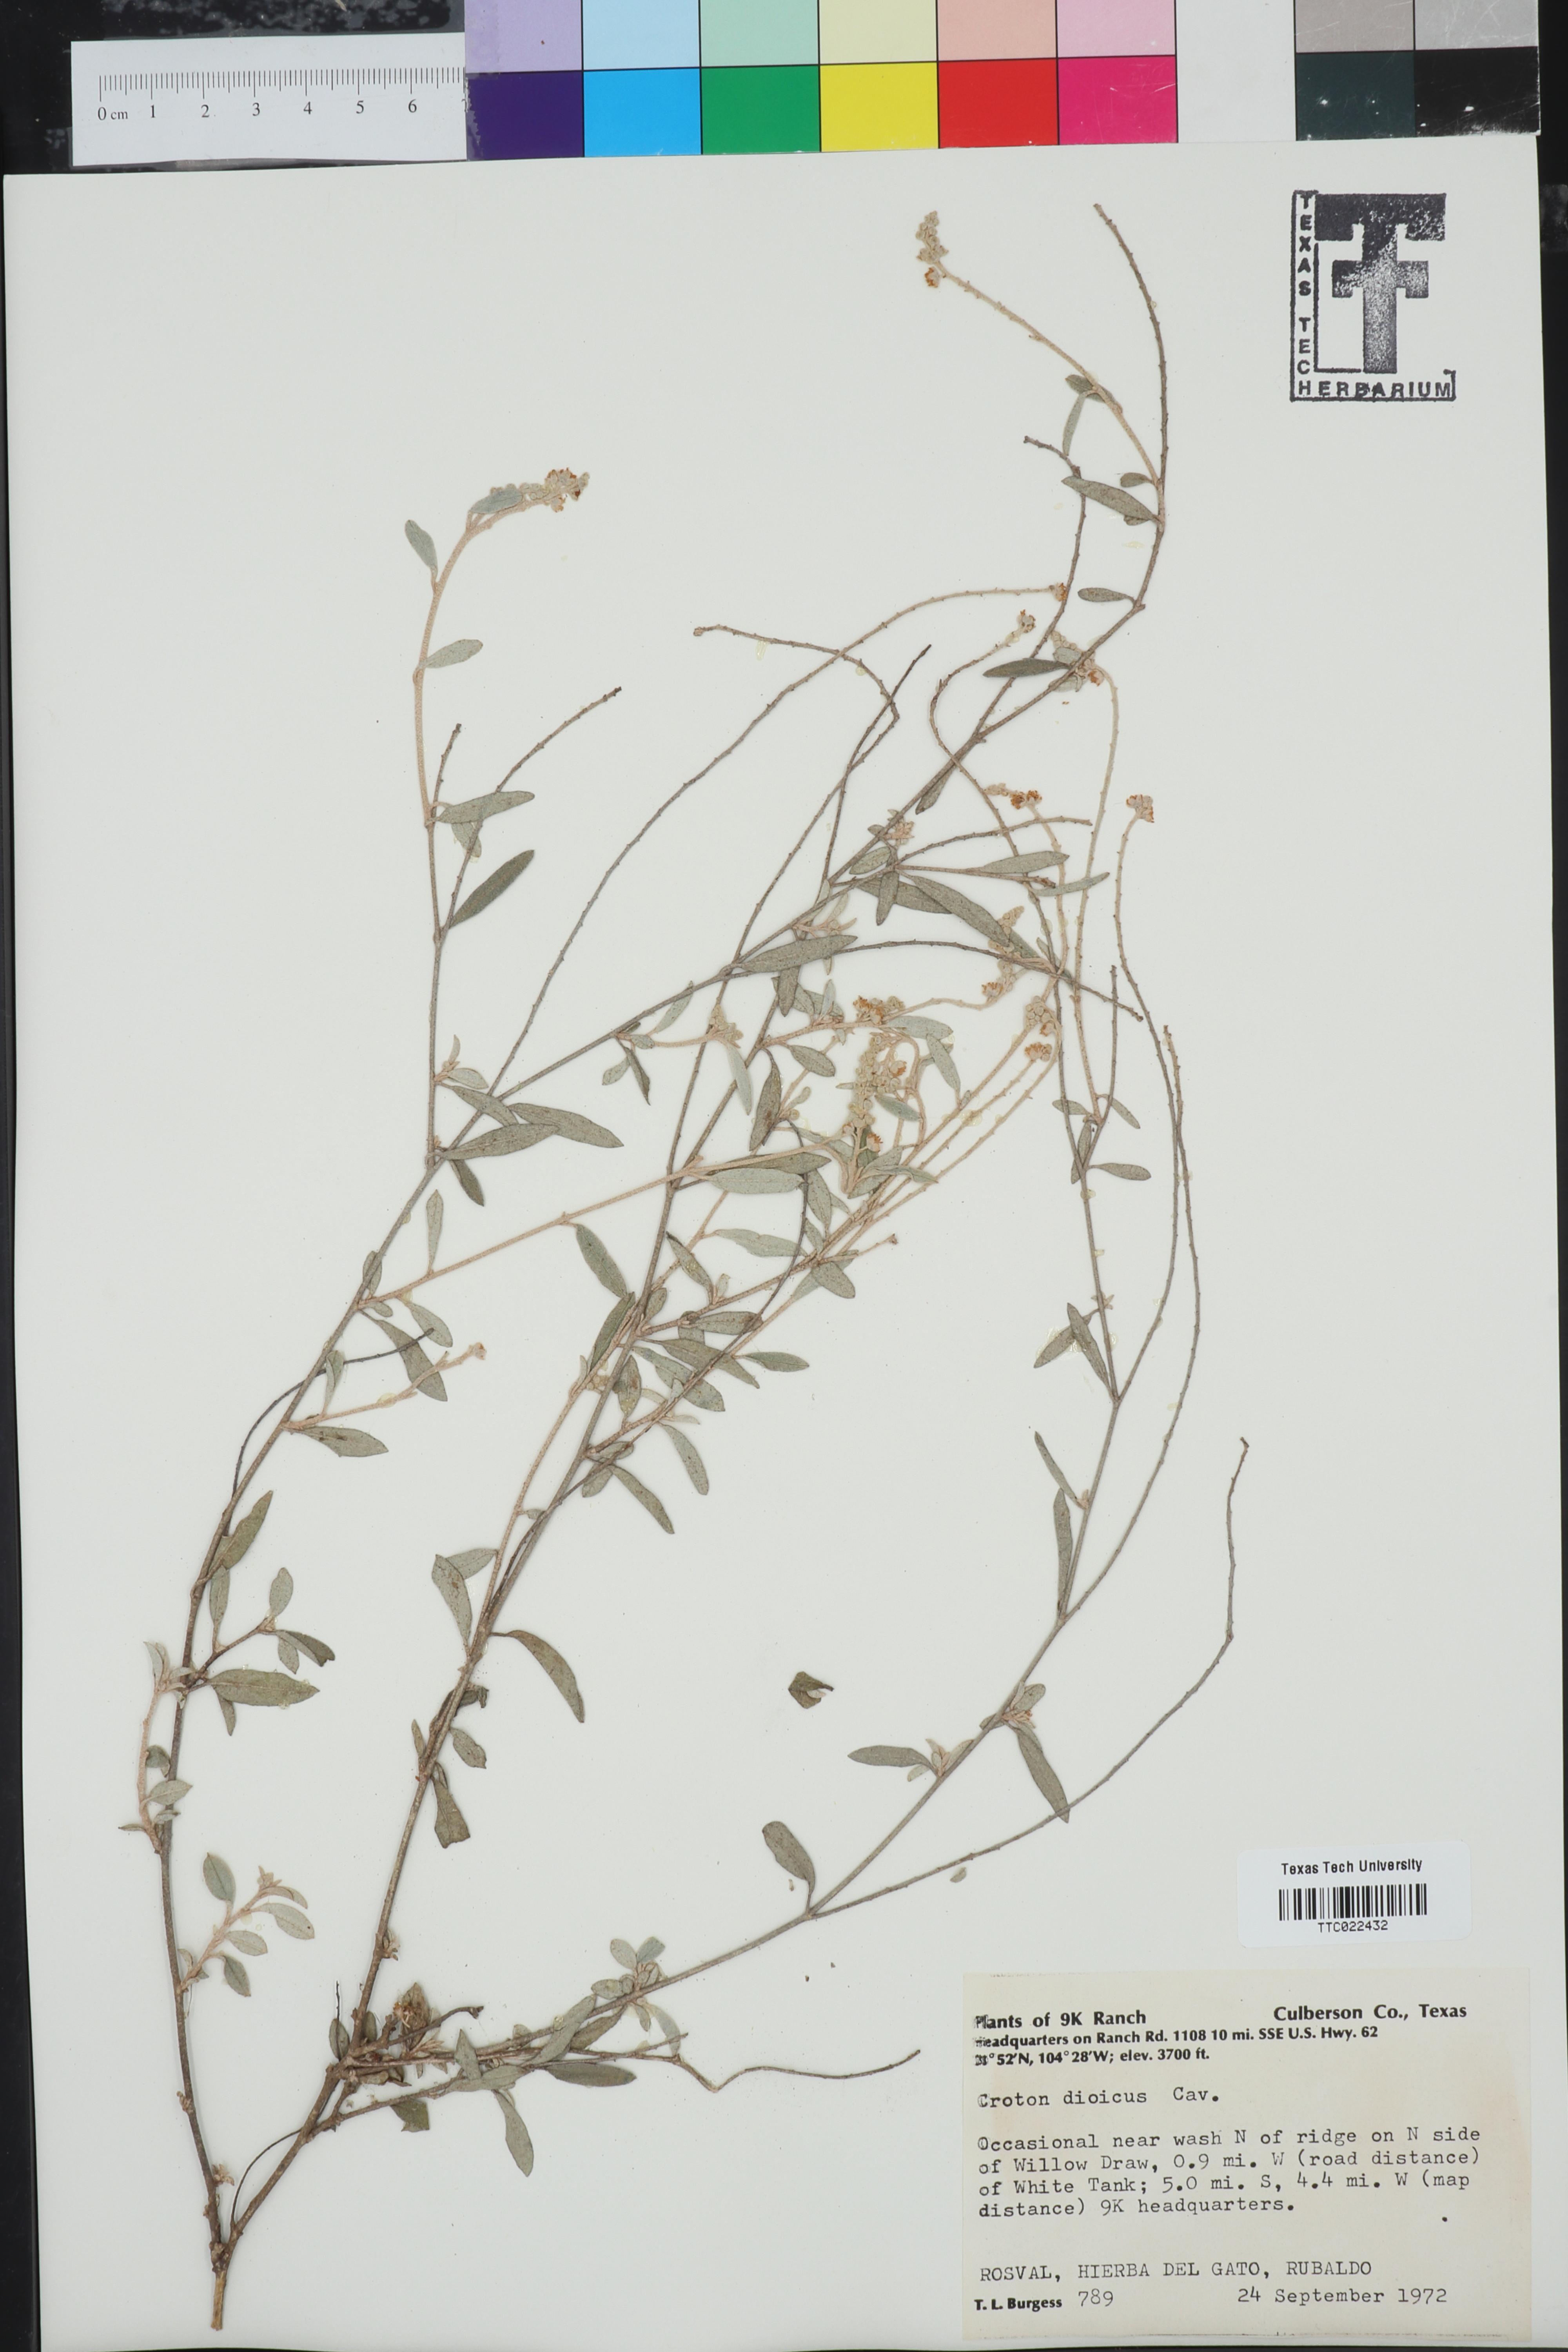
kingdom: Plantae
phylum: Tracheophyta
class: Magnoliopsida
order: Malpighiales
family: Euphorbiaceae
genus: Croton
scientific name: Croton dioicus
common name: Grassland croton
